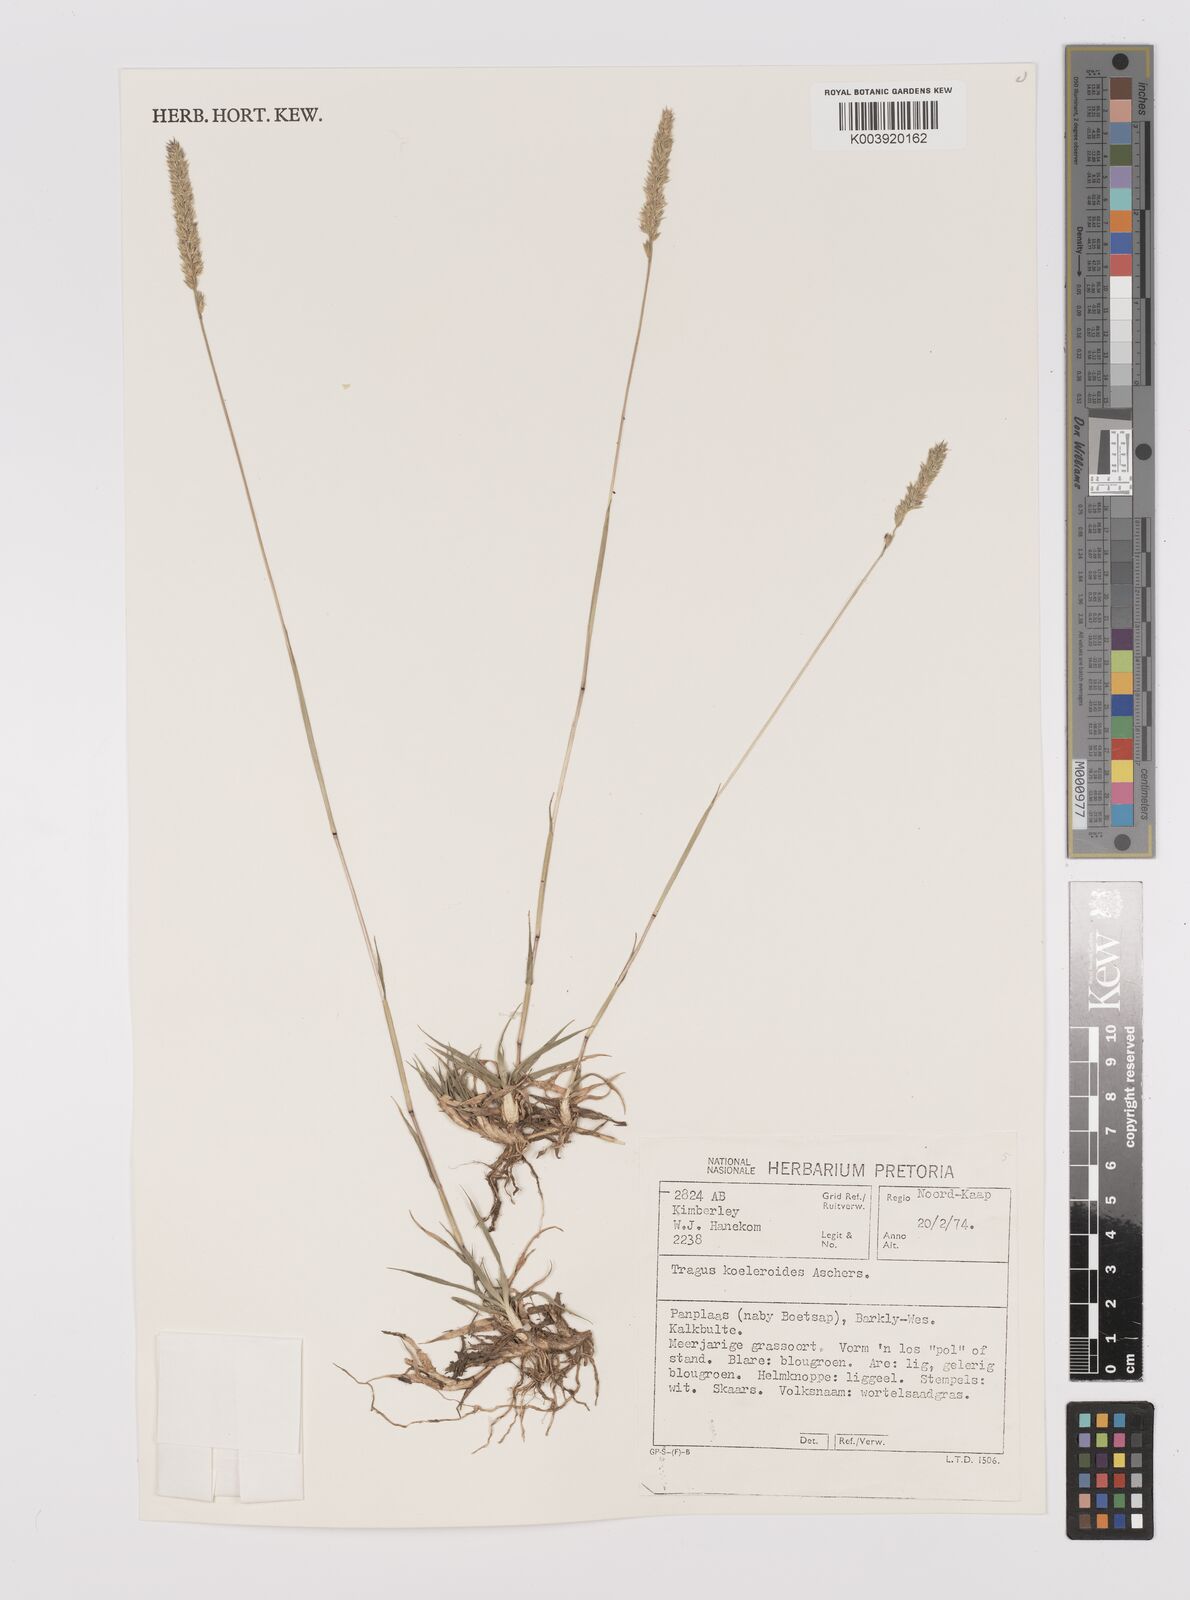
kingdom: Plantae
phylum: Tracheophyta
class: Liliopsida
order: Poales
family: Poaceae
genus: Tragus
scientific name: Tragus koelerioides
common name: Creeping carrot-seed grass
